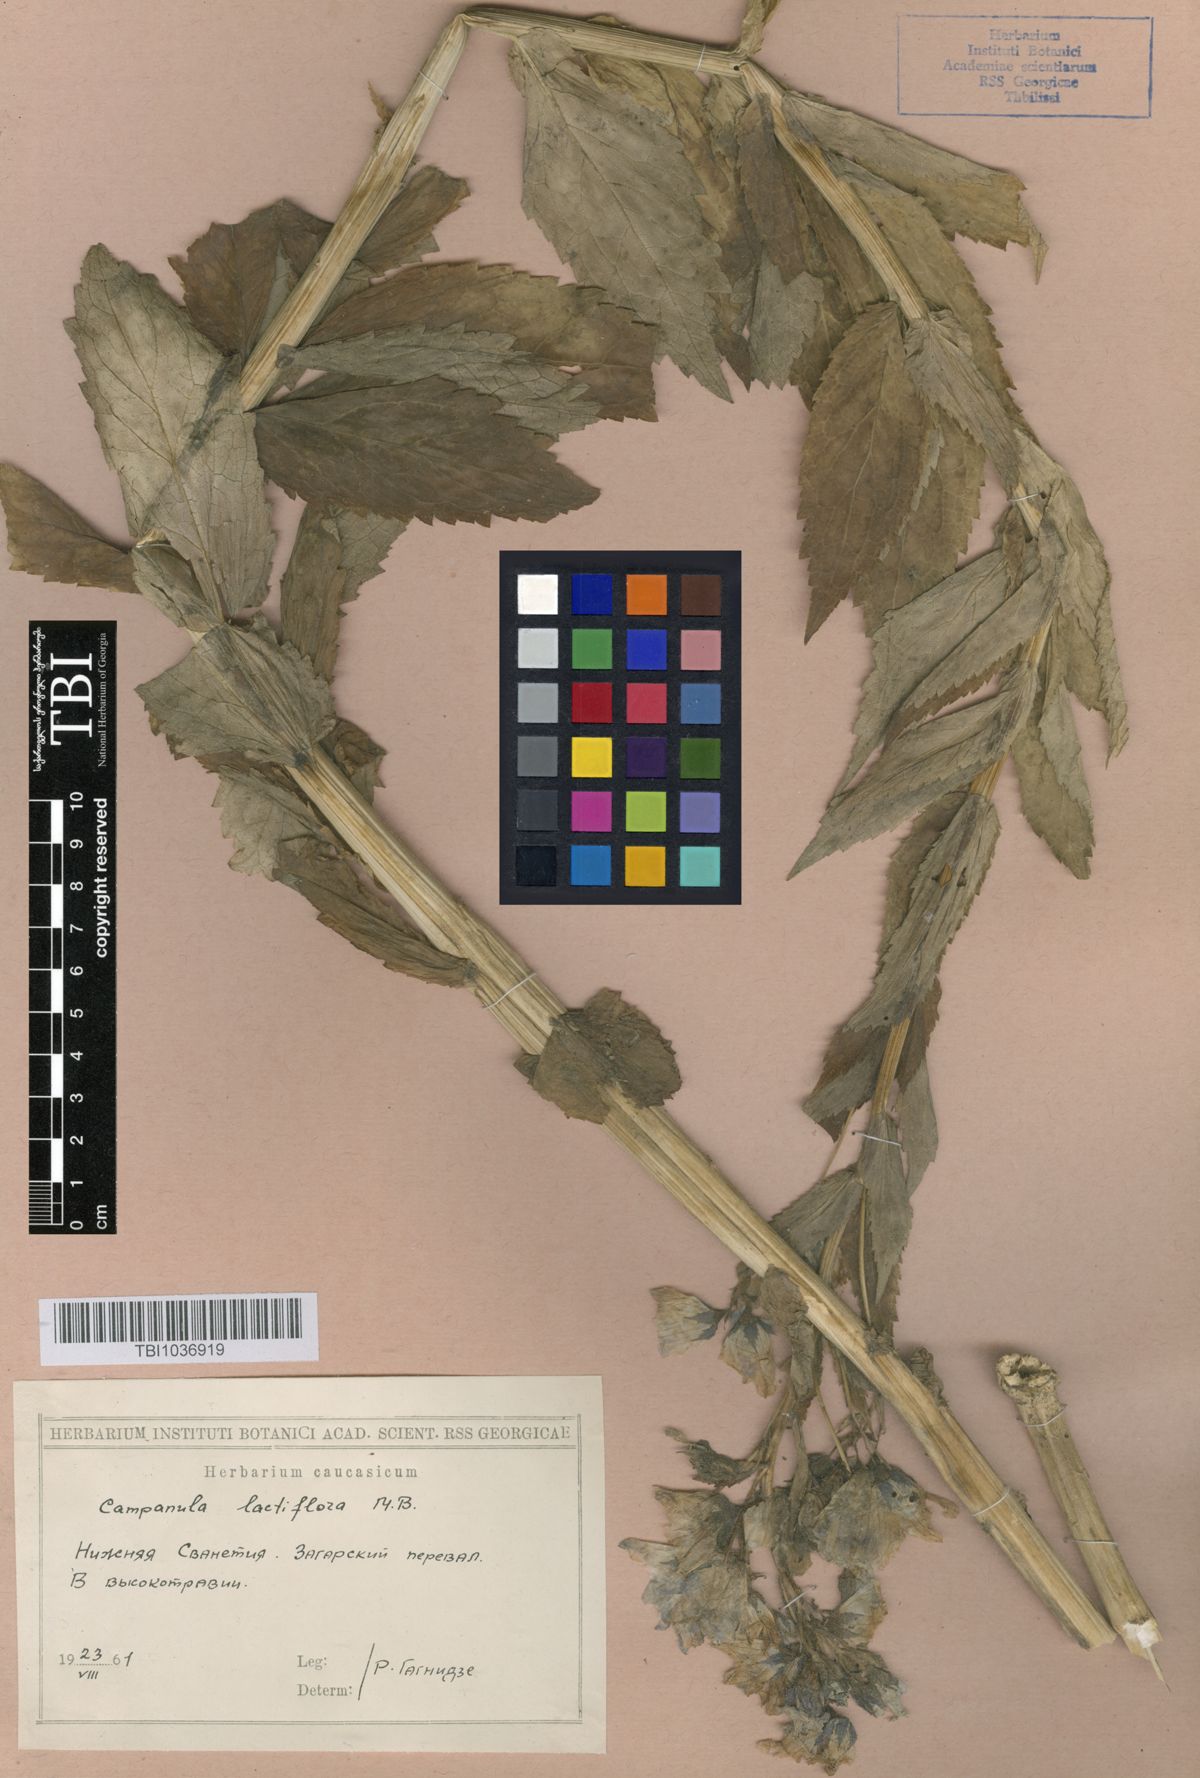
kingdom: Plantae
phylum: Tracheophyta
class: Magnoliopsida
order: Asterales
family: Campanulaceae
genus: Campanula
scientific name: Campanula lactiflora
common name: Milky bellflower
